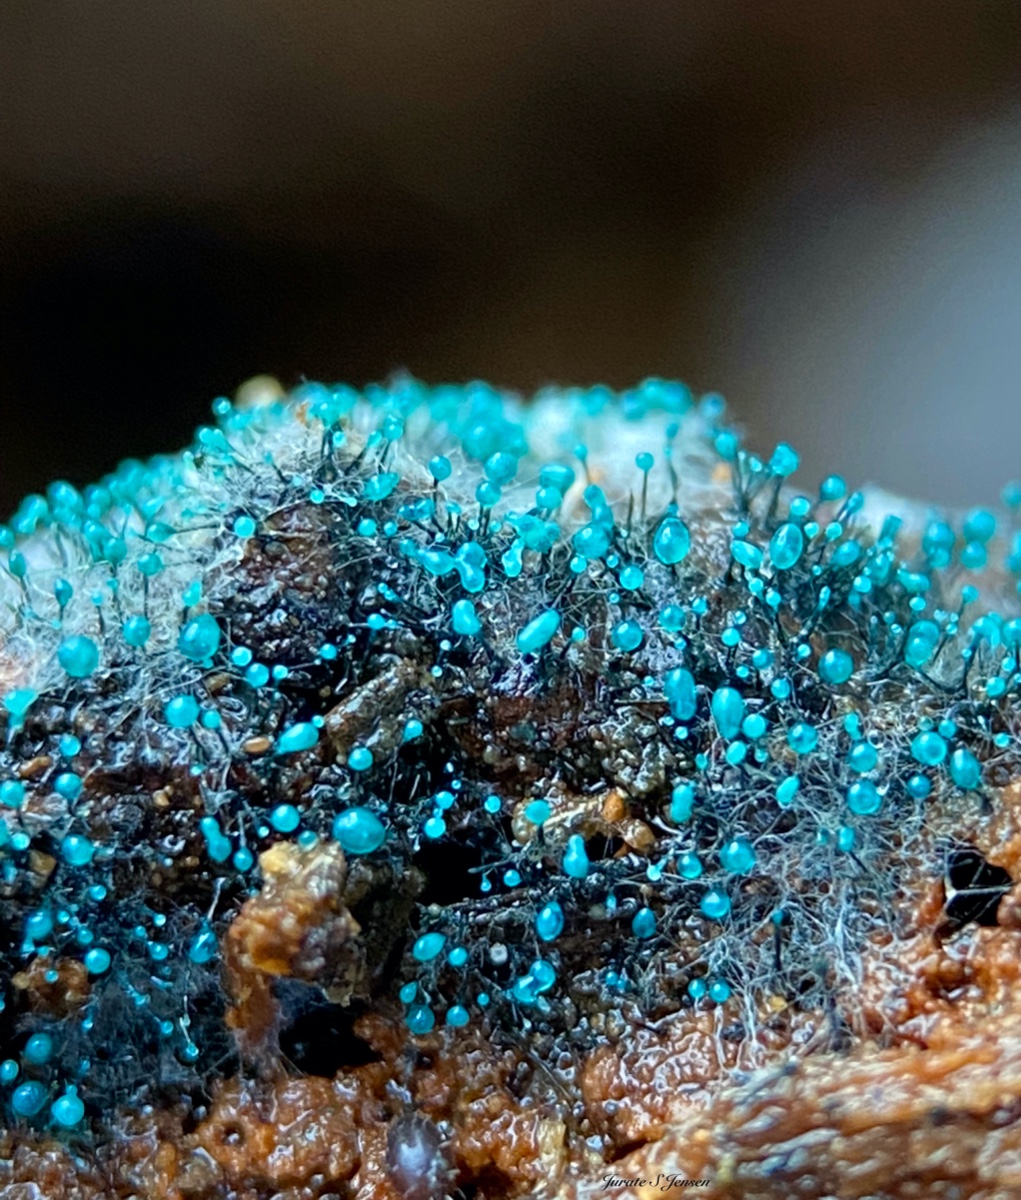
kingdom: Fungi
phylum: Ascomycota
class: Leotiomycetes
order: Leotiales
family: Tympanidaceae
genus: Dendrostilbella
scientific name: Dendrostilbella smaragdina
